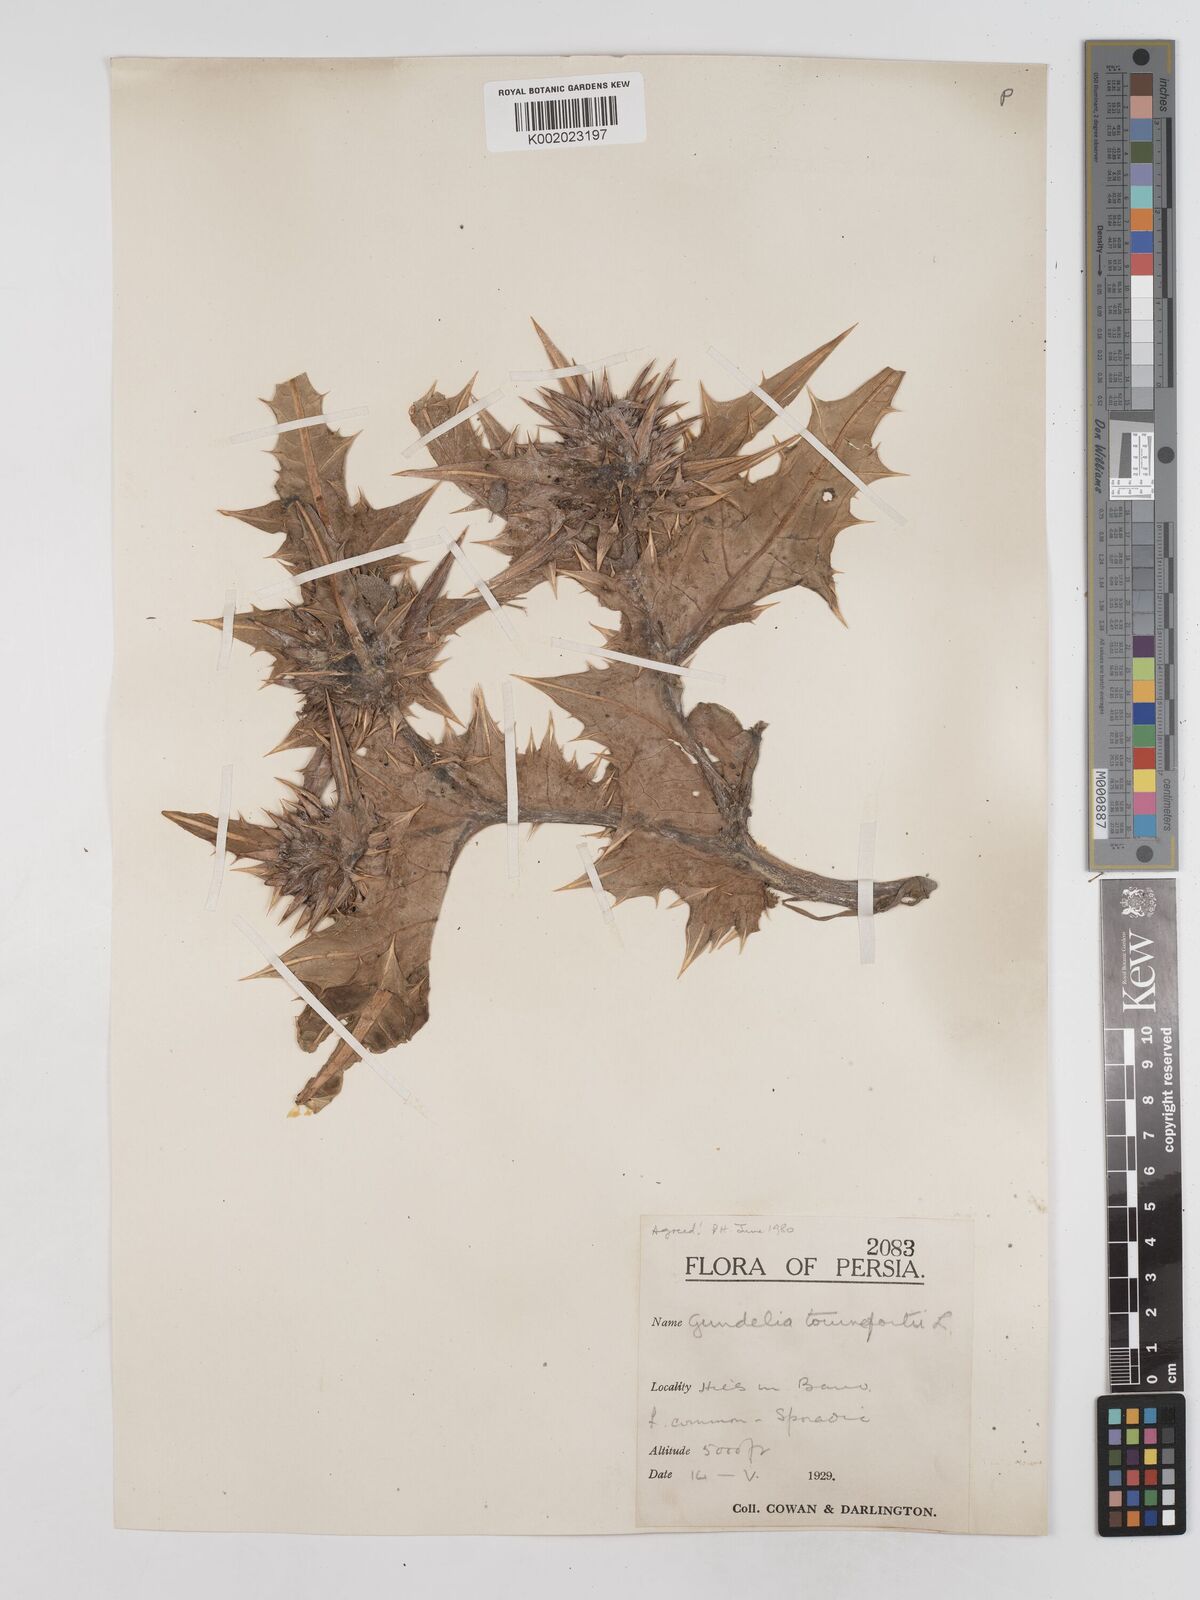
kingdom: Plantae
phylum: Tracheophyta
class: Magnoliopsida
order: Asterales
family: Asteraceae
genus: Gundelia
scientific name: Gundelia tournefortii
